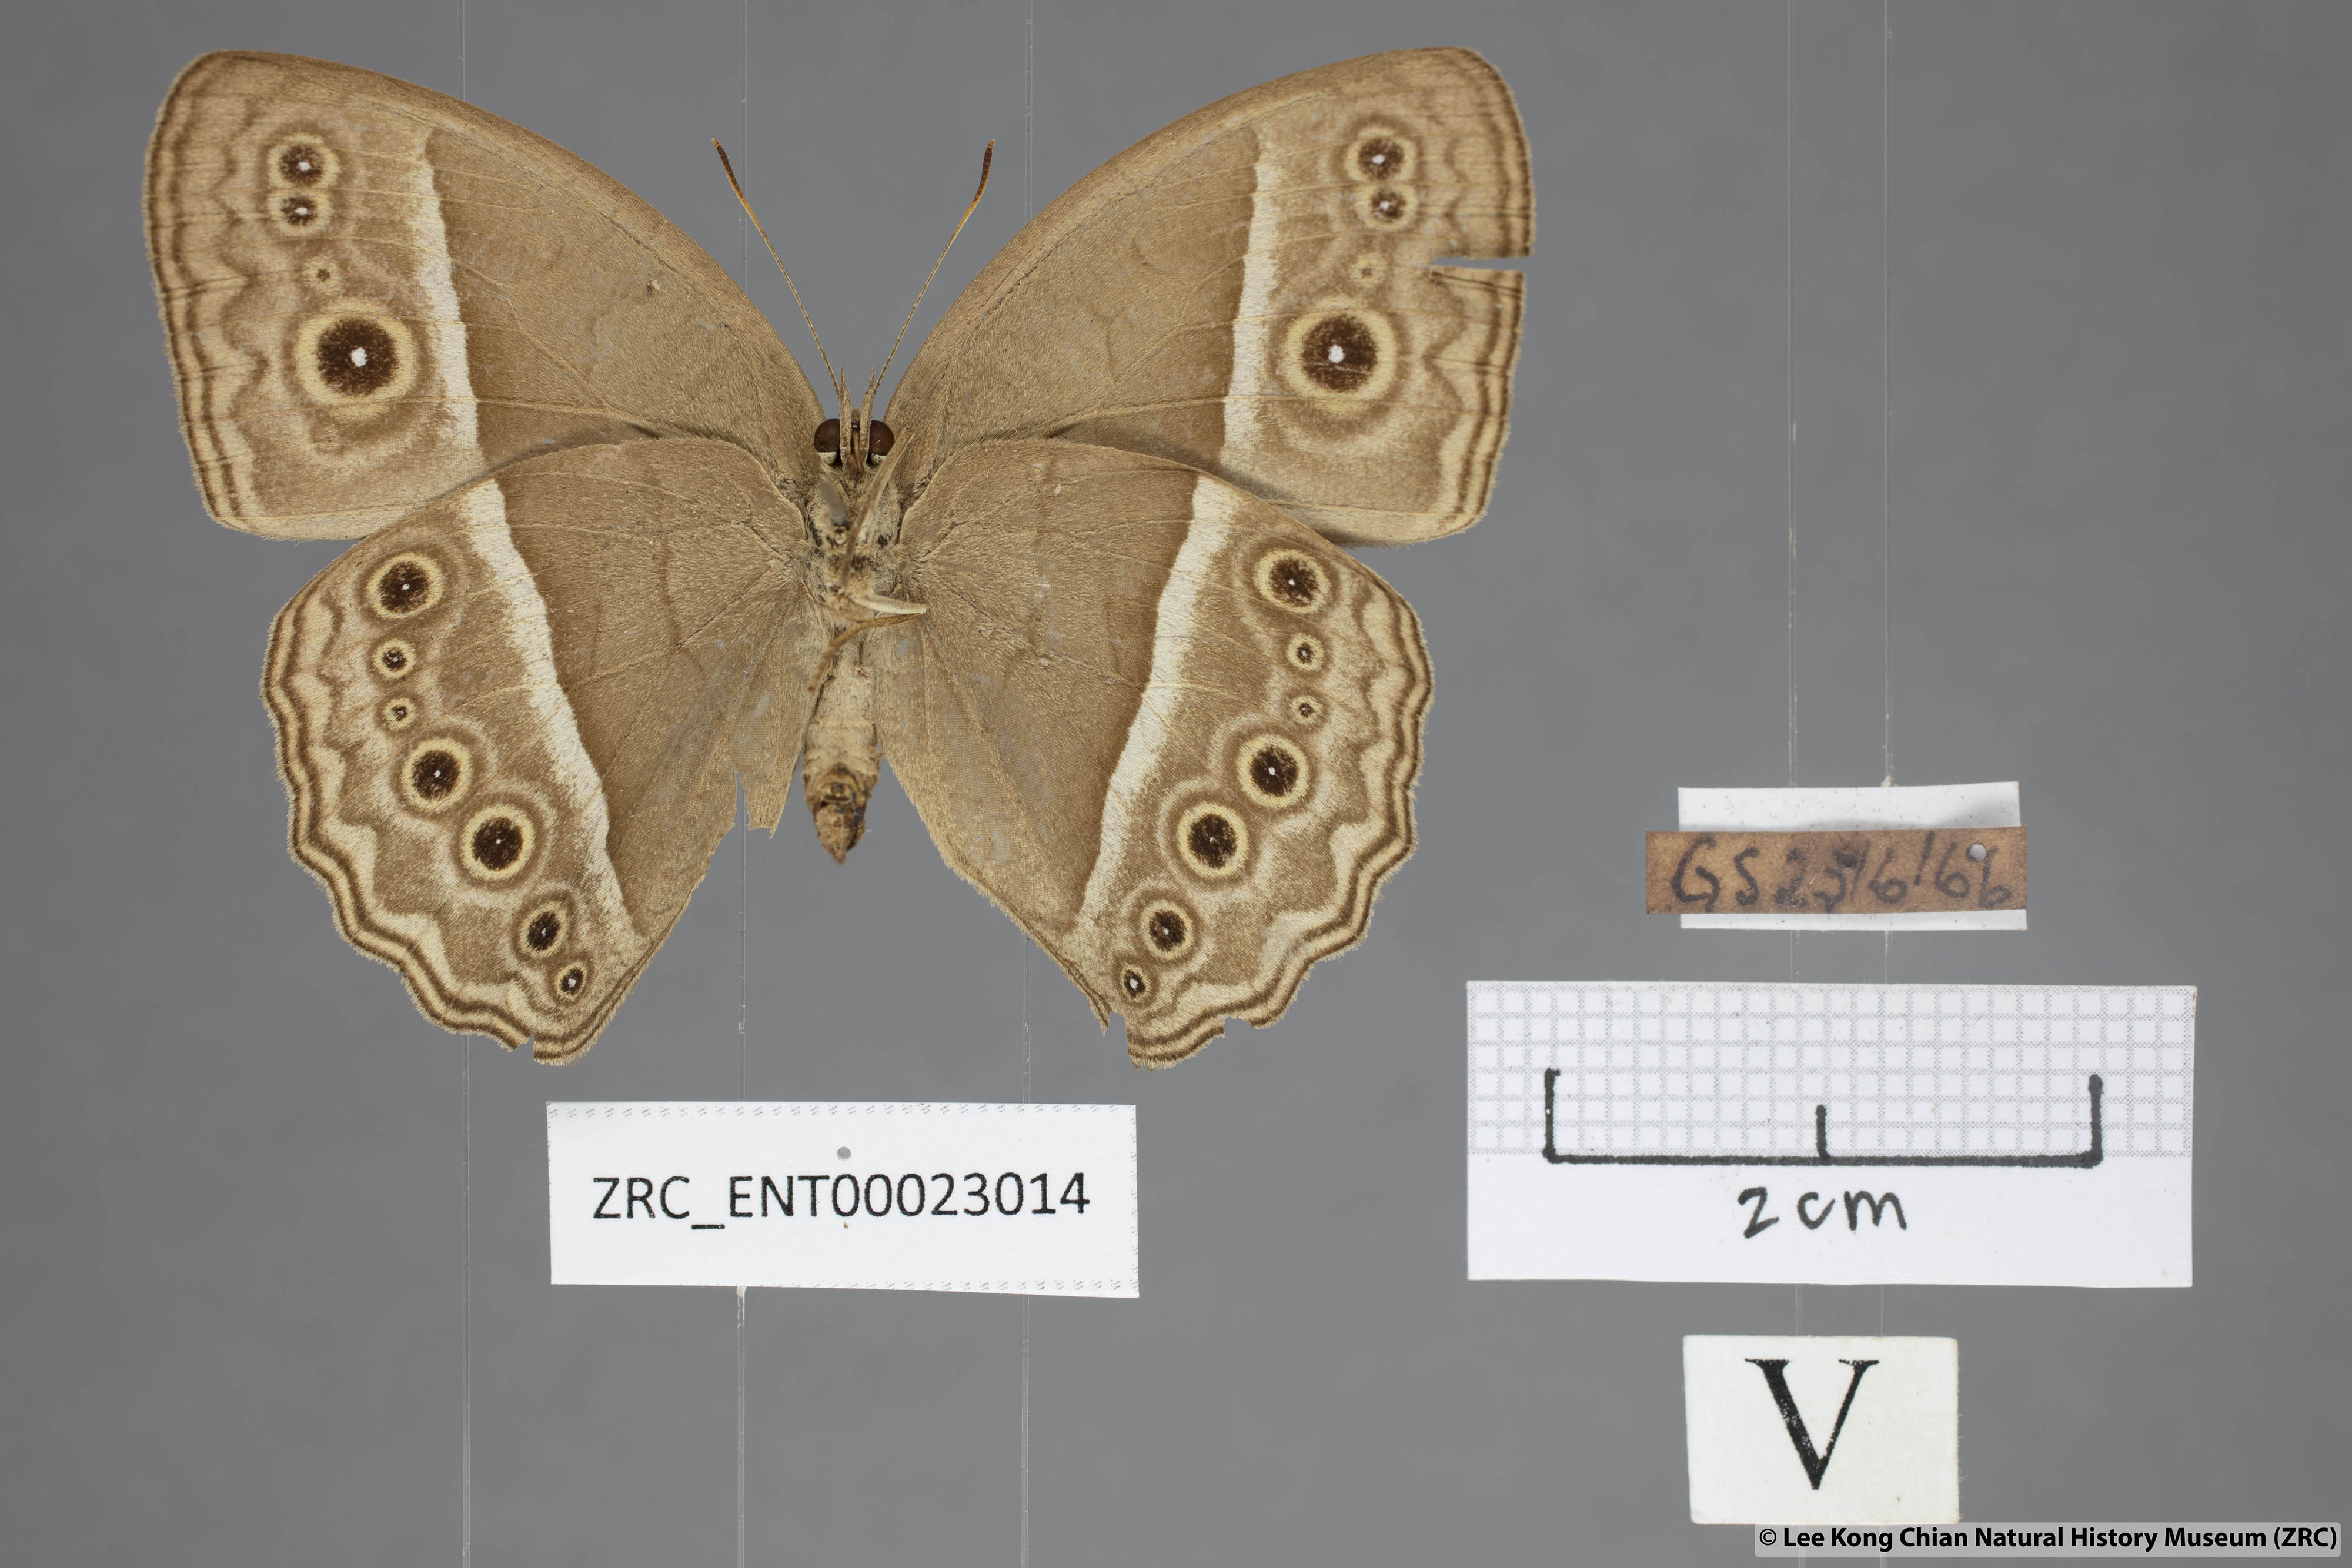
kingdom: Animalia
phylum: Arthropoda
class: Insecta
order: Lepidoptera
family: Nymphalidae
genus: Mycalesis
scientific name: Mycalesis visala
